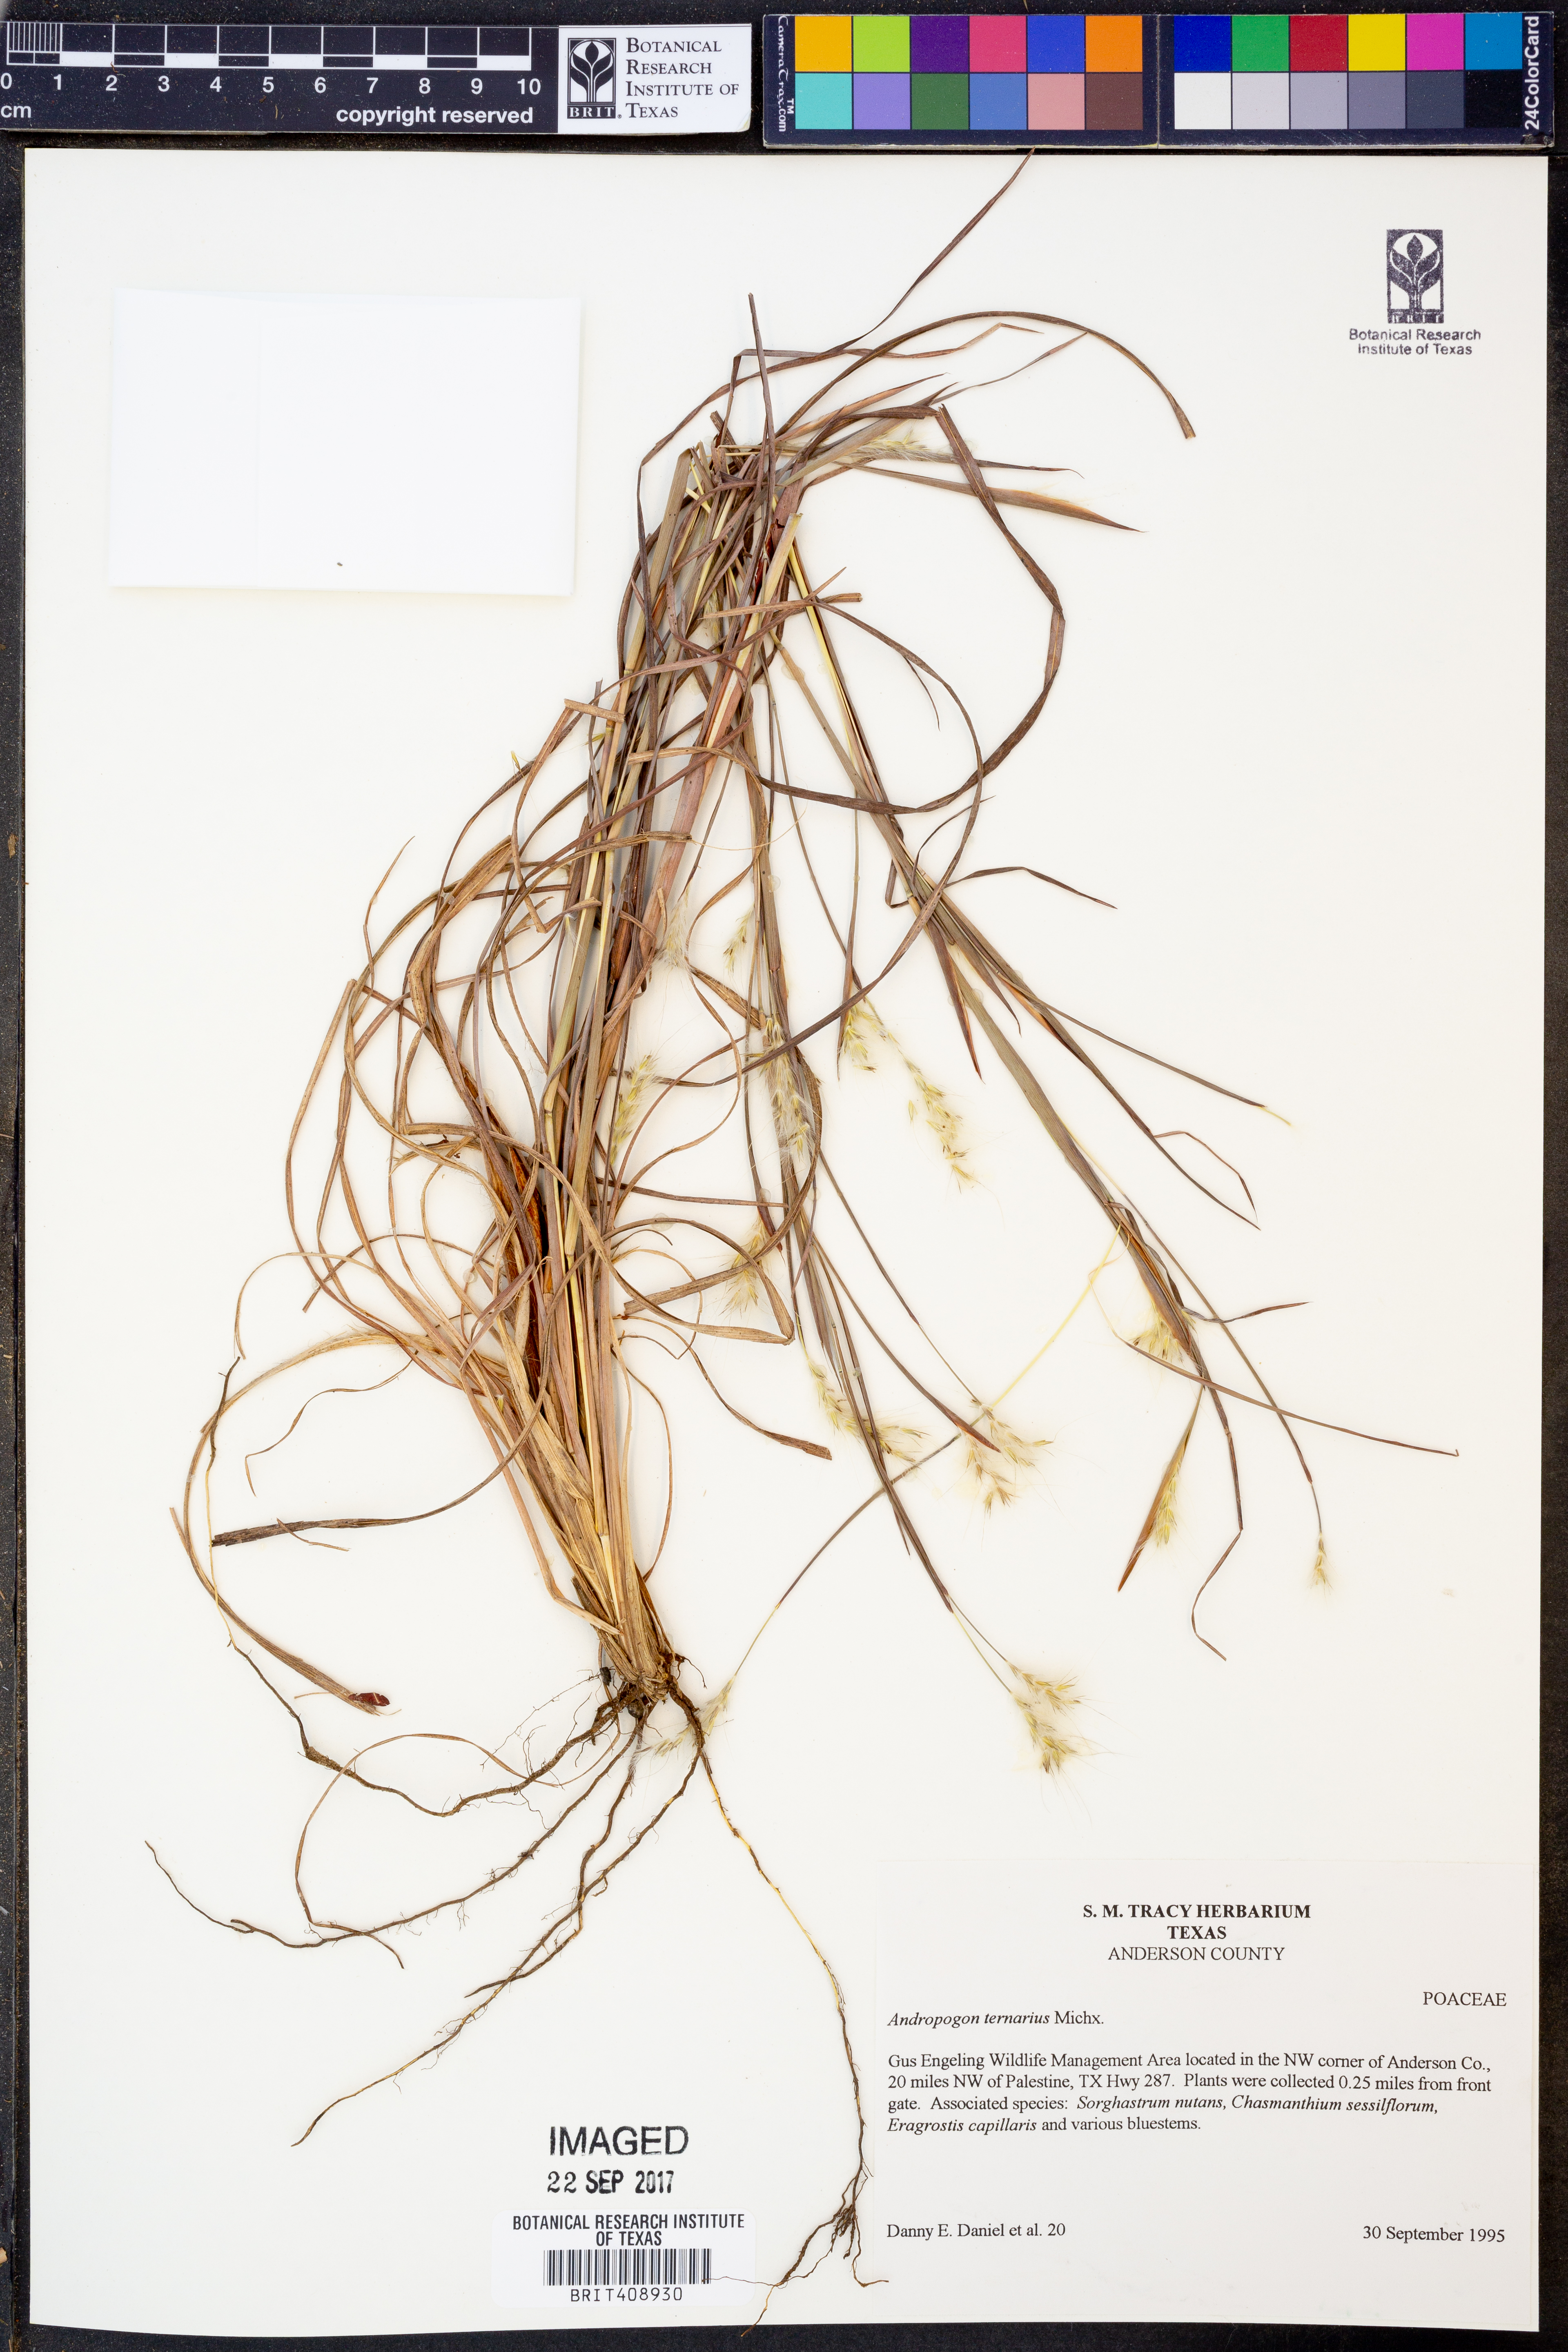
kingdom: Plantae
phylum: Tracheophyta
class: Liliopsida
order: Poales
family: Poaceae
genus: Andropogon
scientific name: Andropogon ternarius
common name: Split bluestem
